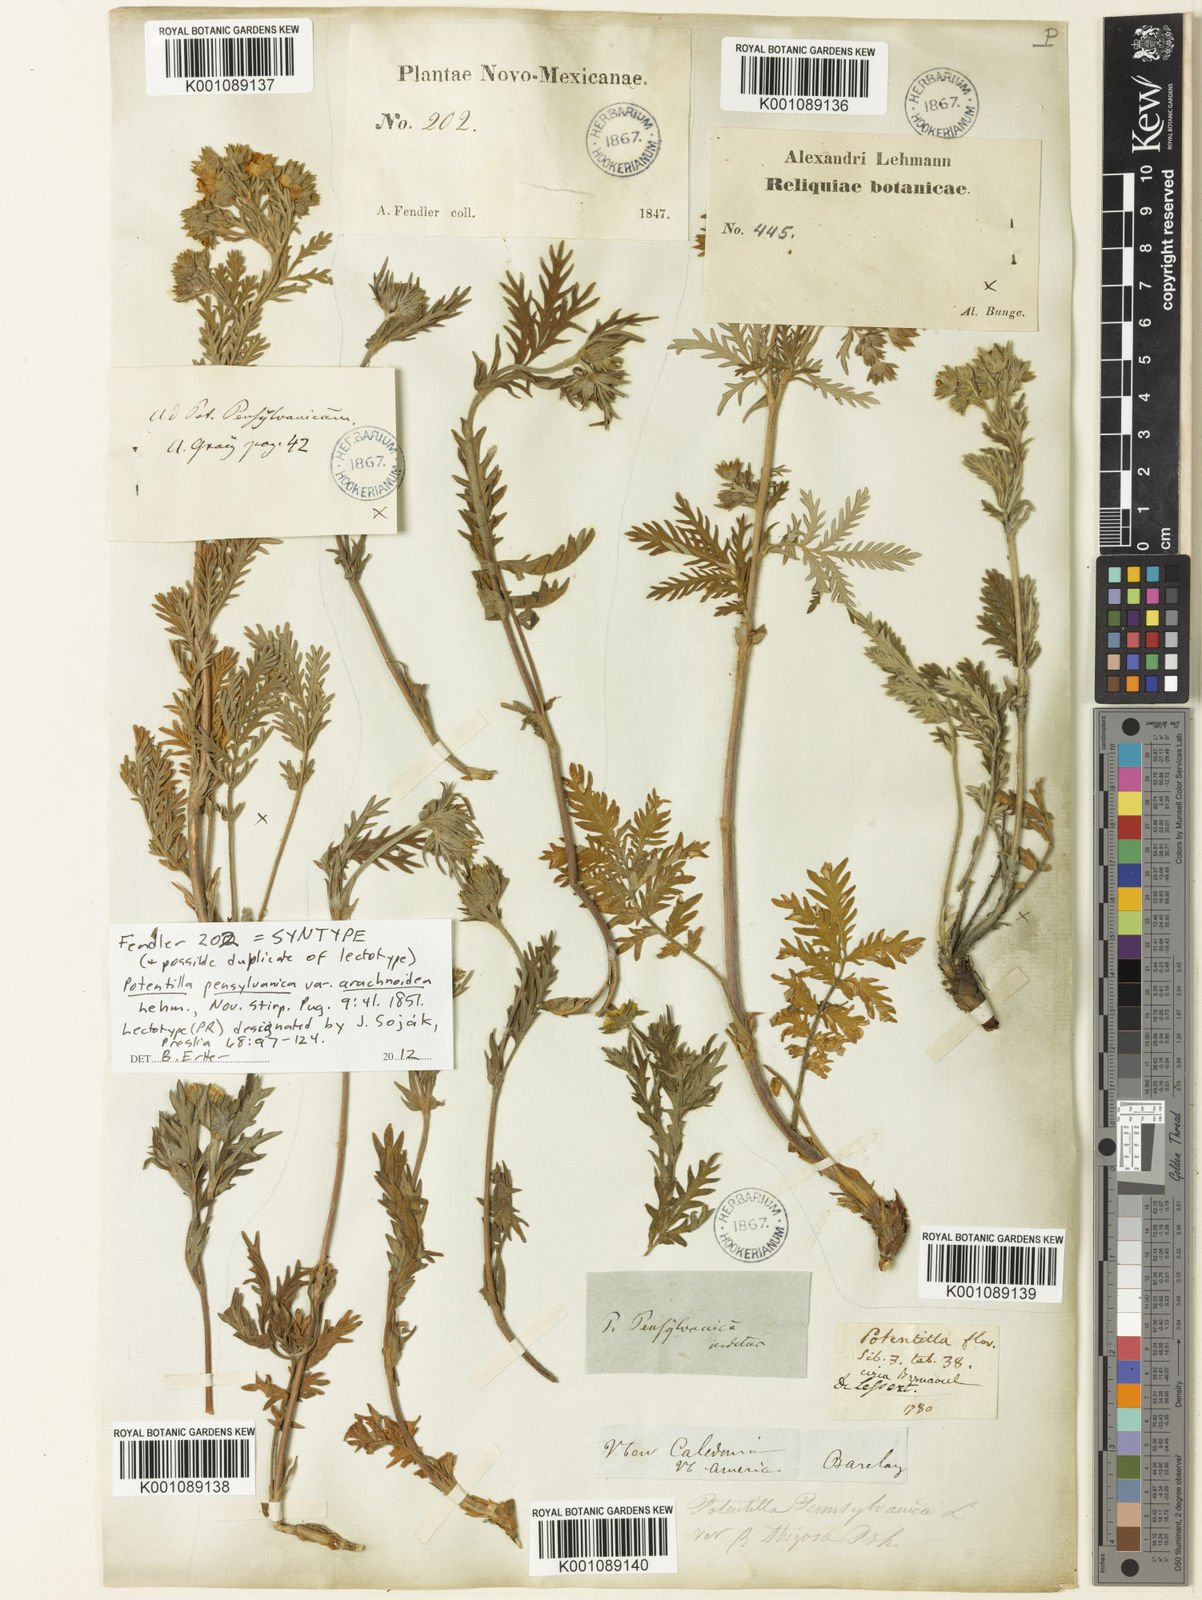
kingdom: Plantae
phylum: Tracheophyta
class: Magnoliopsida
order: Rosales
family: Rosaceae
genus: Potentilla
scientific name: Potentilla pensylvanica
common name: Pennsylvania cinquefoil
